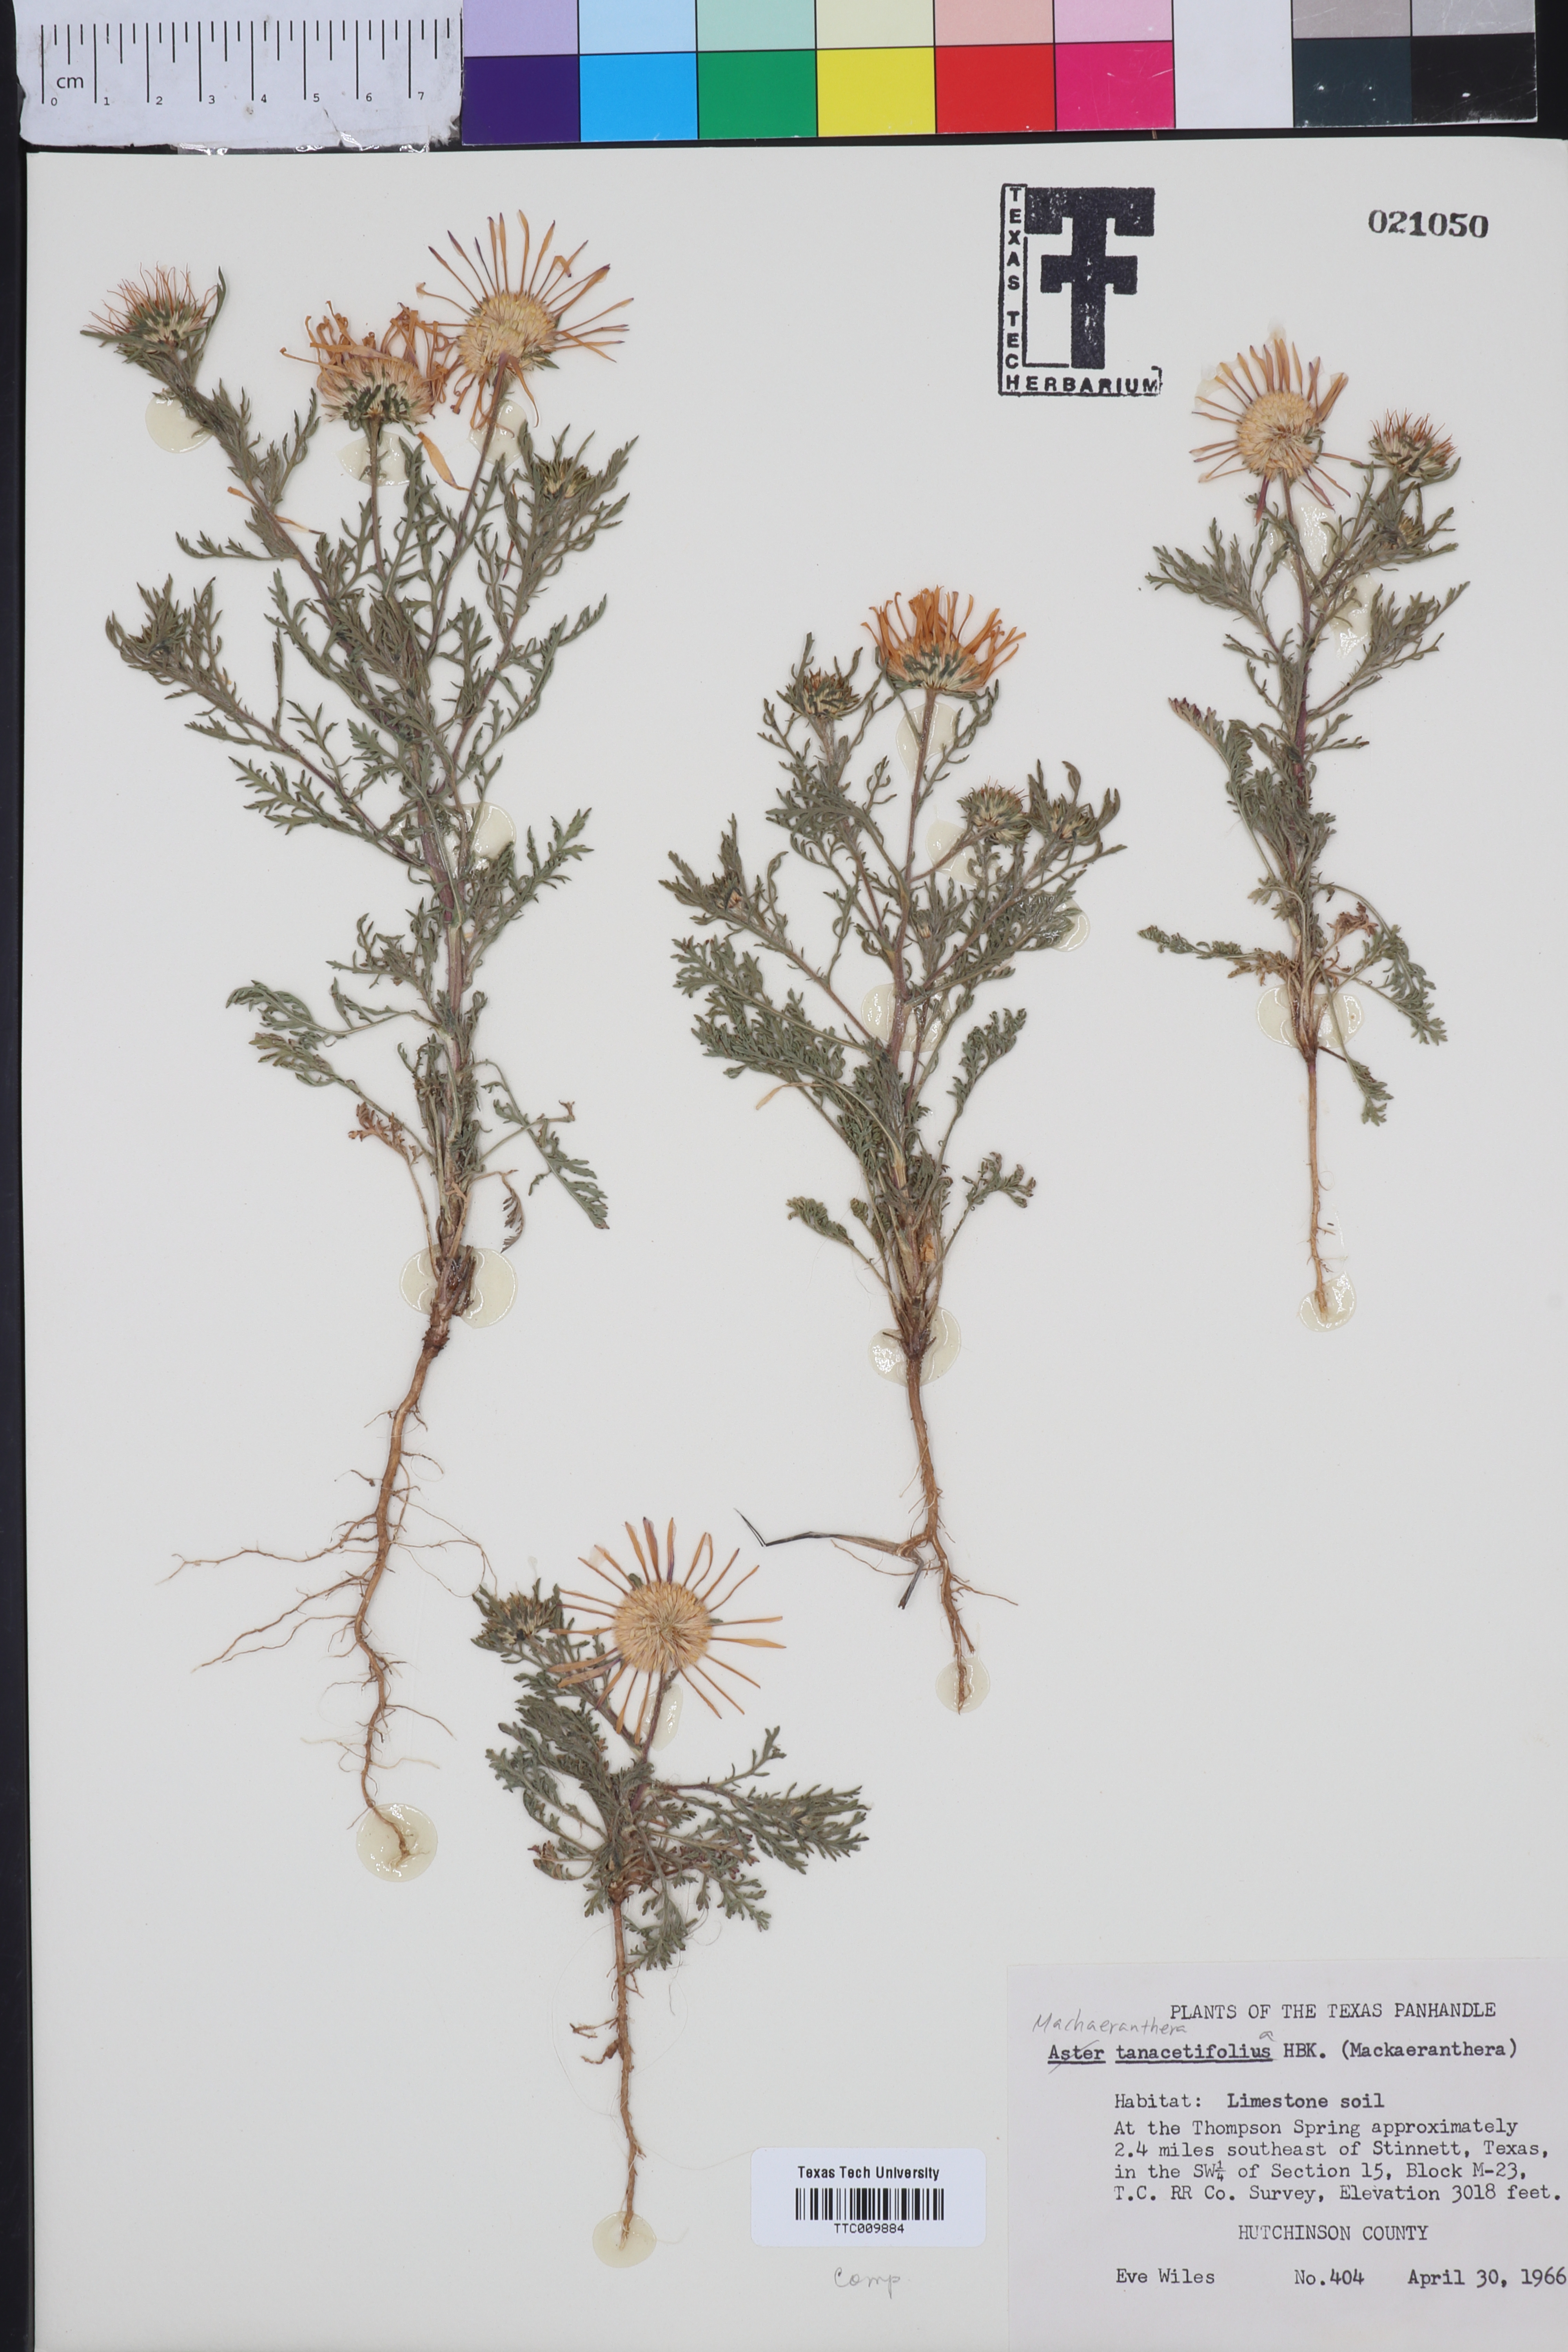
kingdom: Plantae
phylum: Tracheophyta
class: Magnoliopsida
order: Asterales
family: Asteraceae
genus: Machaeranthera
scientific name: Machaeranthera tanacetifolia
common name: Tansy-aster
